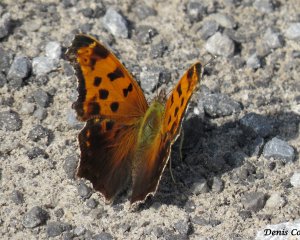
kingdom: Animalia
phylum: Arthropoda
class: Insecta
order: Lepidoptera
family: Nymphalidae
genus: Polygonia
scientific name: Polygonia comma
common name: Eastern Comma
